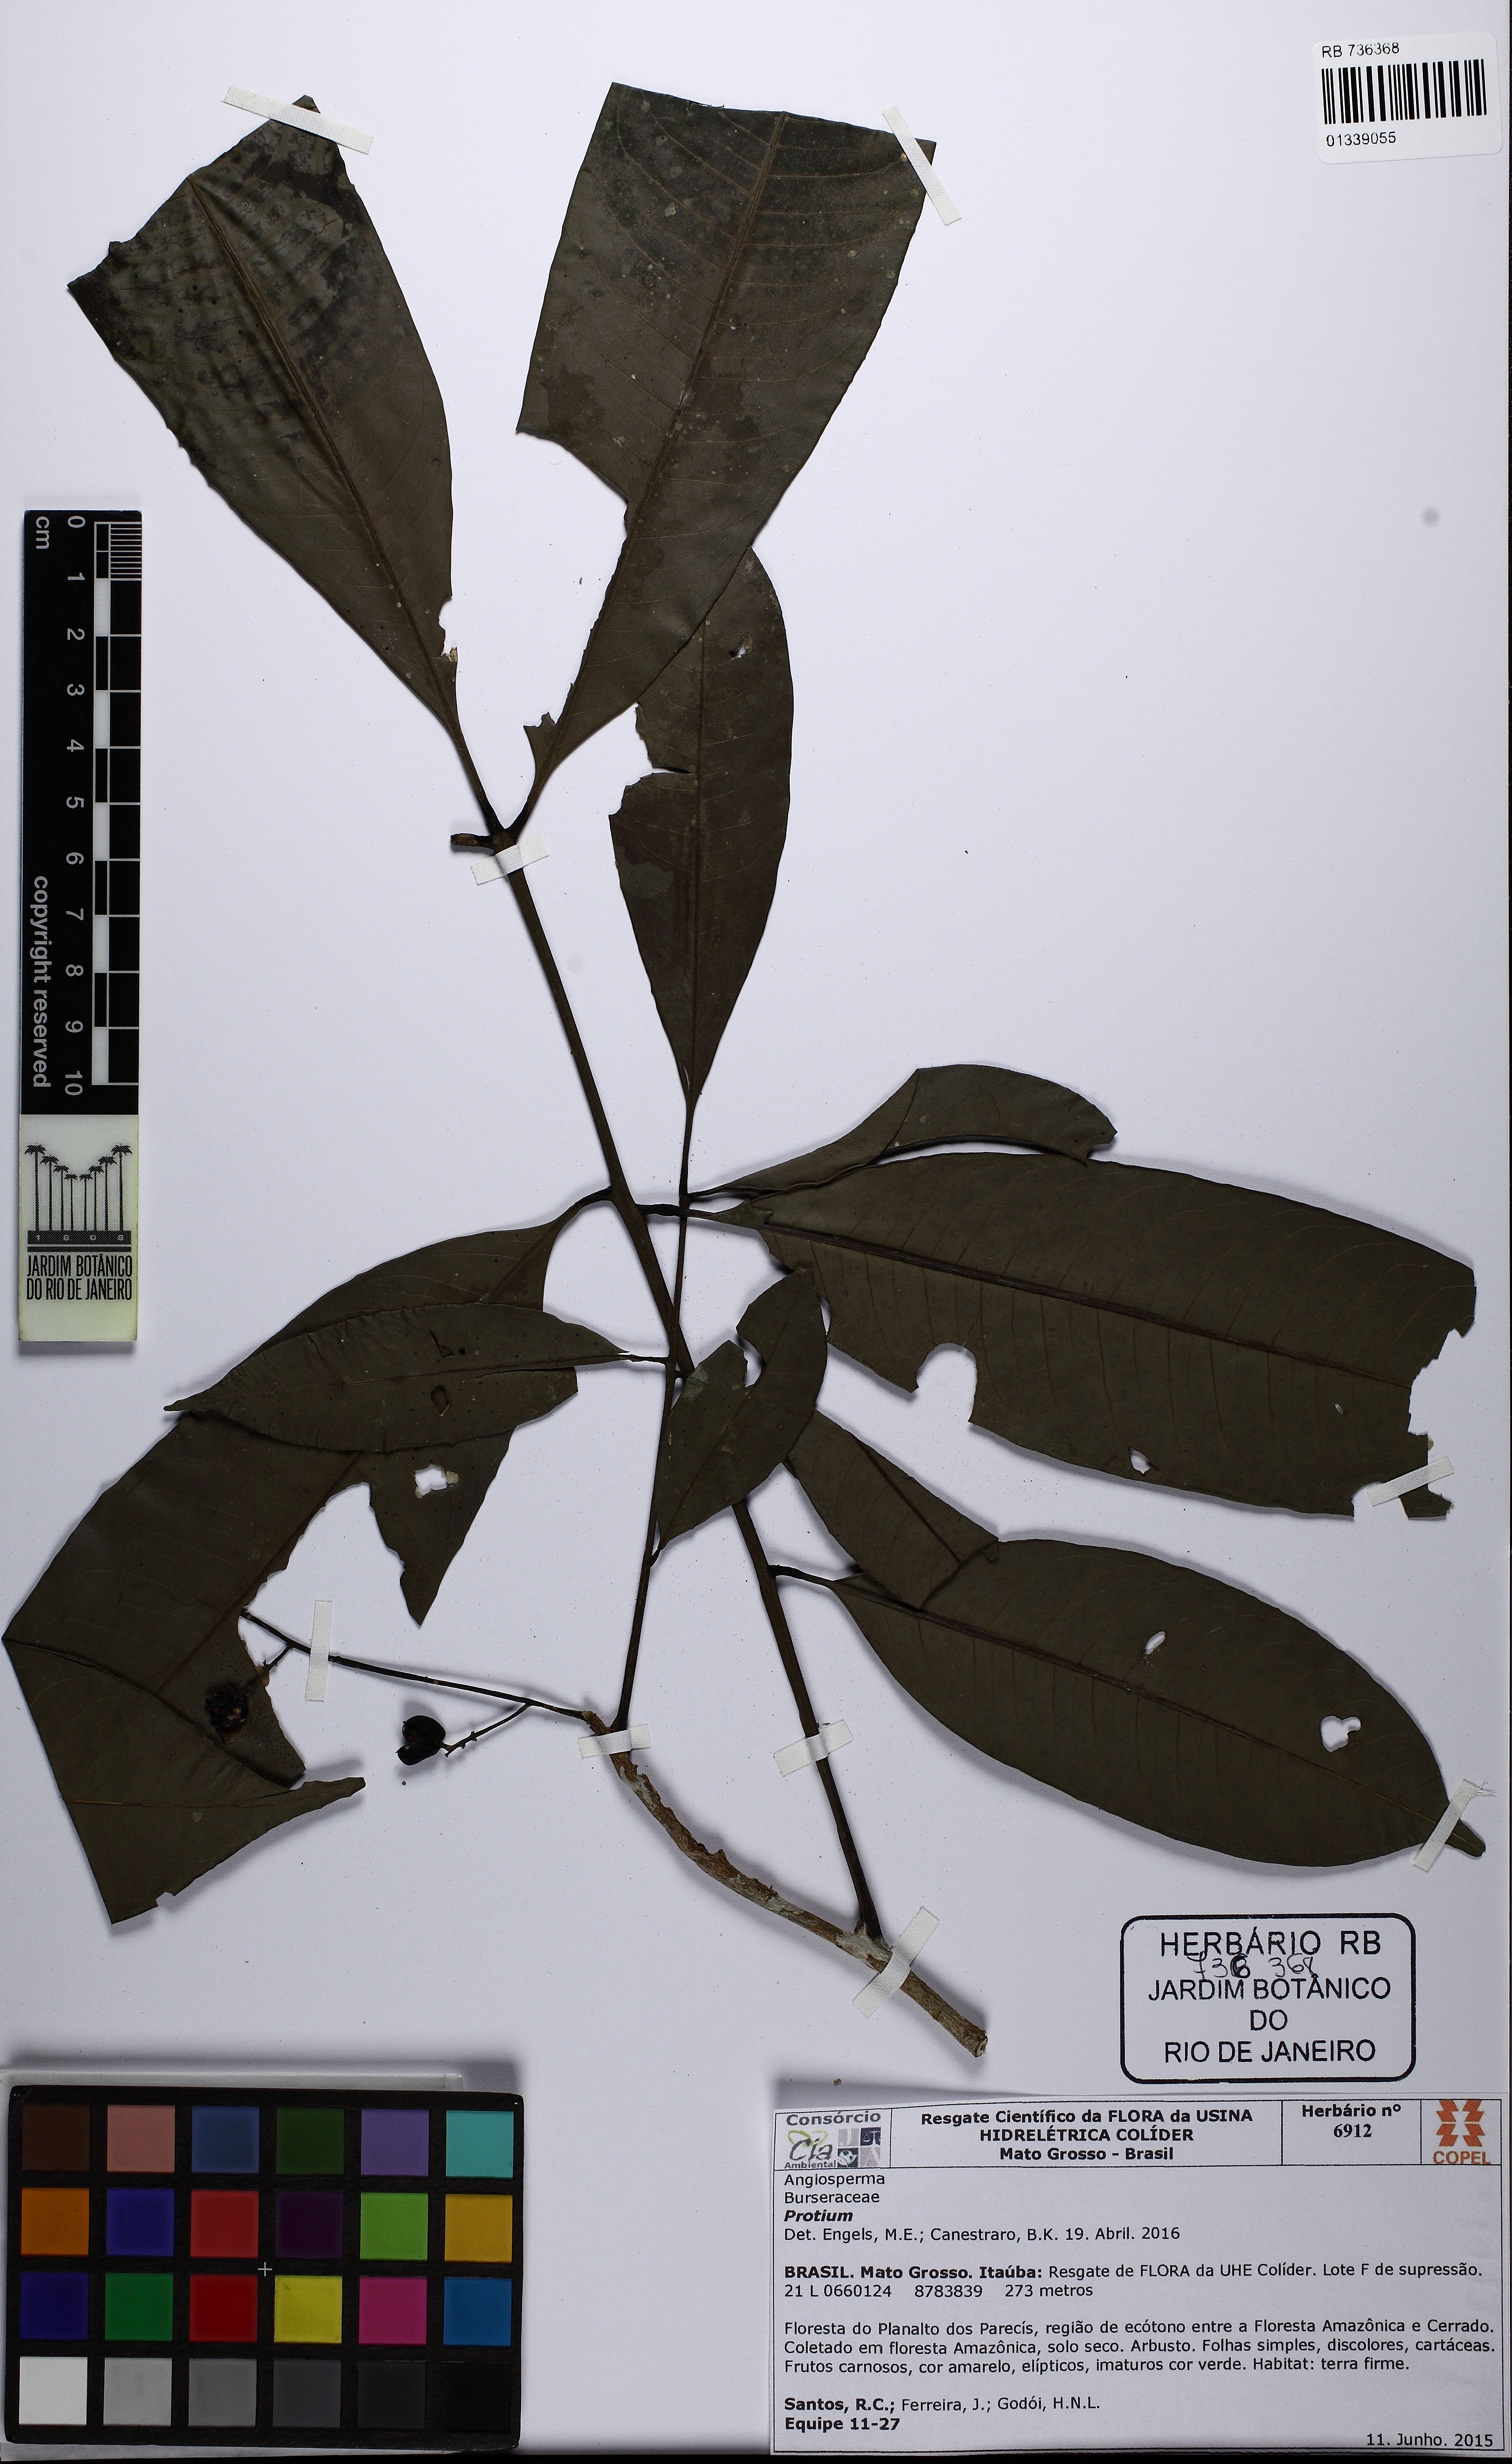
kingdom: Plantae
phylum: Tracheophyta
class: Magnoliopsida
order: Sapindales
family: Meliaceae
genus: Trichilia
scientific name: Trichilia
